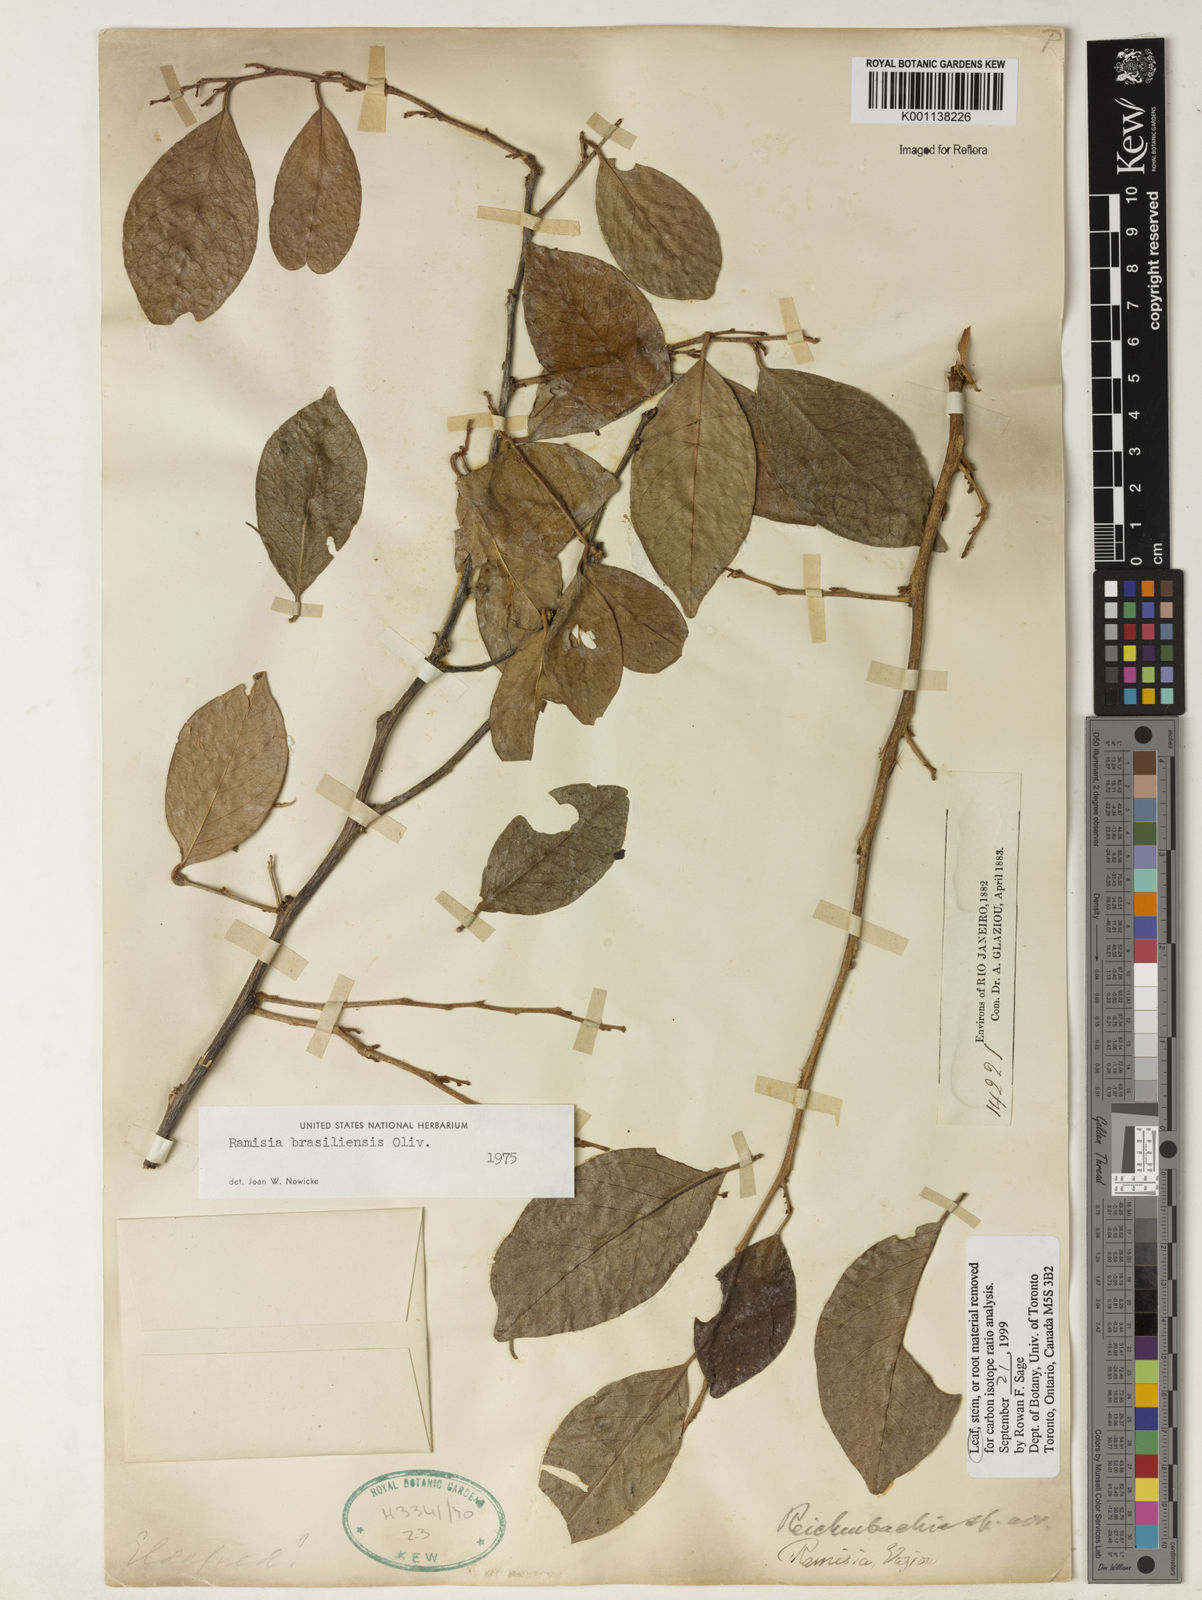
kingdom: Plantae
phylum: Tracheophyta
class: Magnoliopsida
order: Caryophyllales
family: Nyctaginaceae
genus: Ramisia
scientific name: Ramisia brasiliensis
